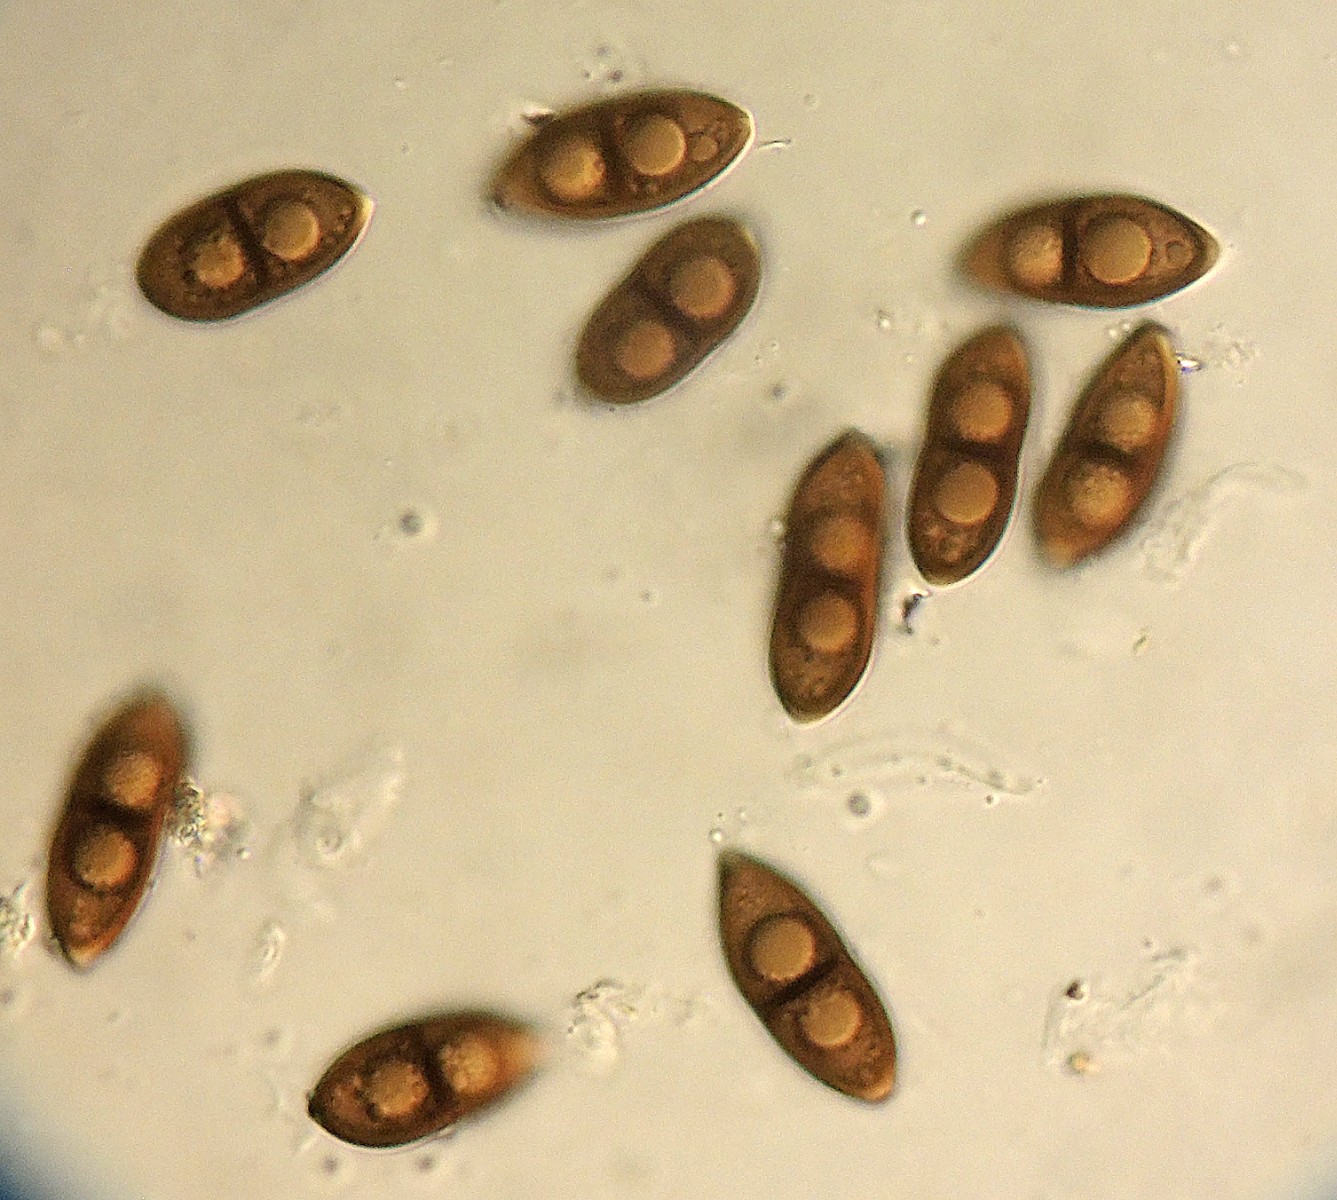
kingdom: Fungi
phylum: Ascomycota
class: Leotiomycetes
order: Helotiales
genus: Apiculospora
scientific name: Apiculospora spartii
